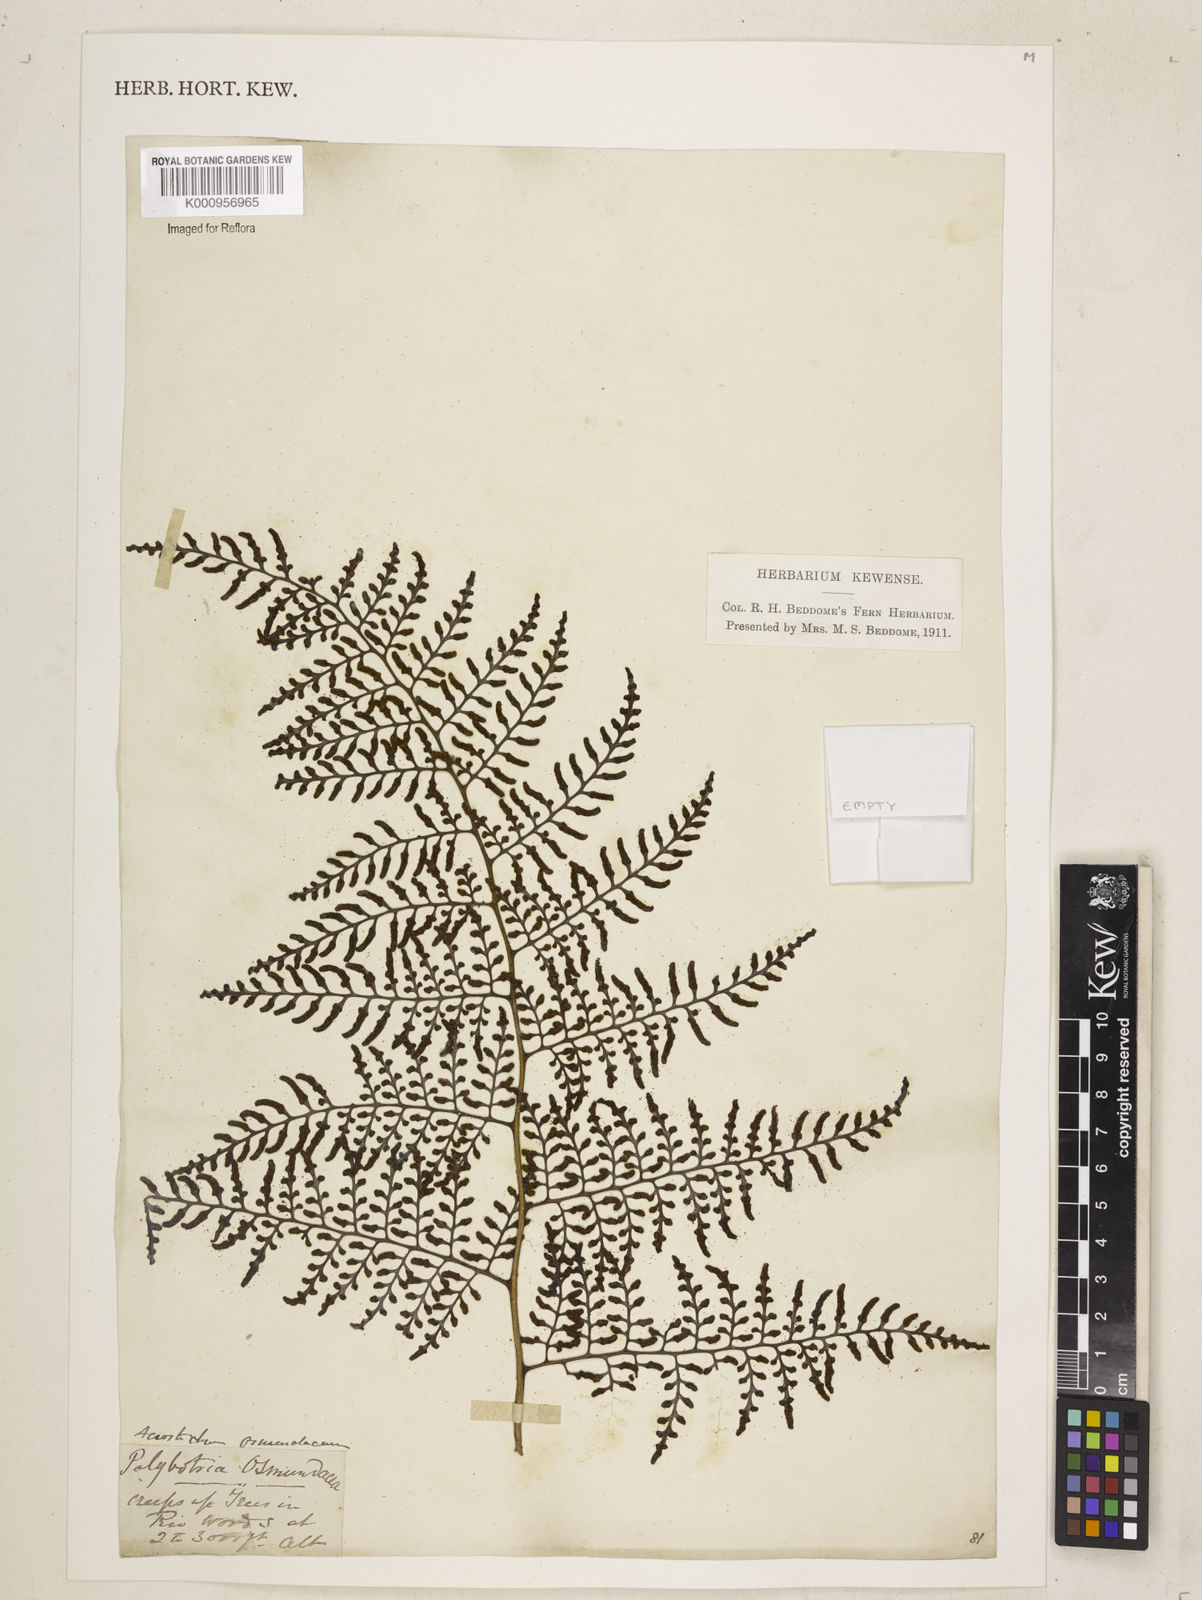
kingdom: Plantae
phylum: Tracheophyta
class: Polypodiopsida
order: Polypodiales
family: Dryopteridaceae
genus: Polybotrya
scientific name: Polybotrya osmundacea
